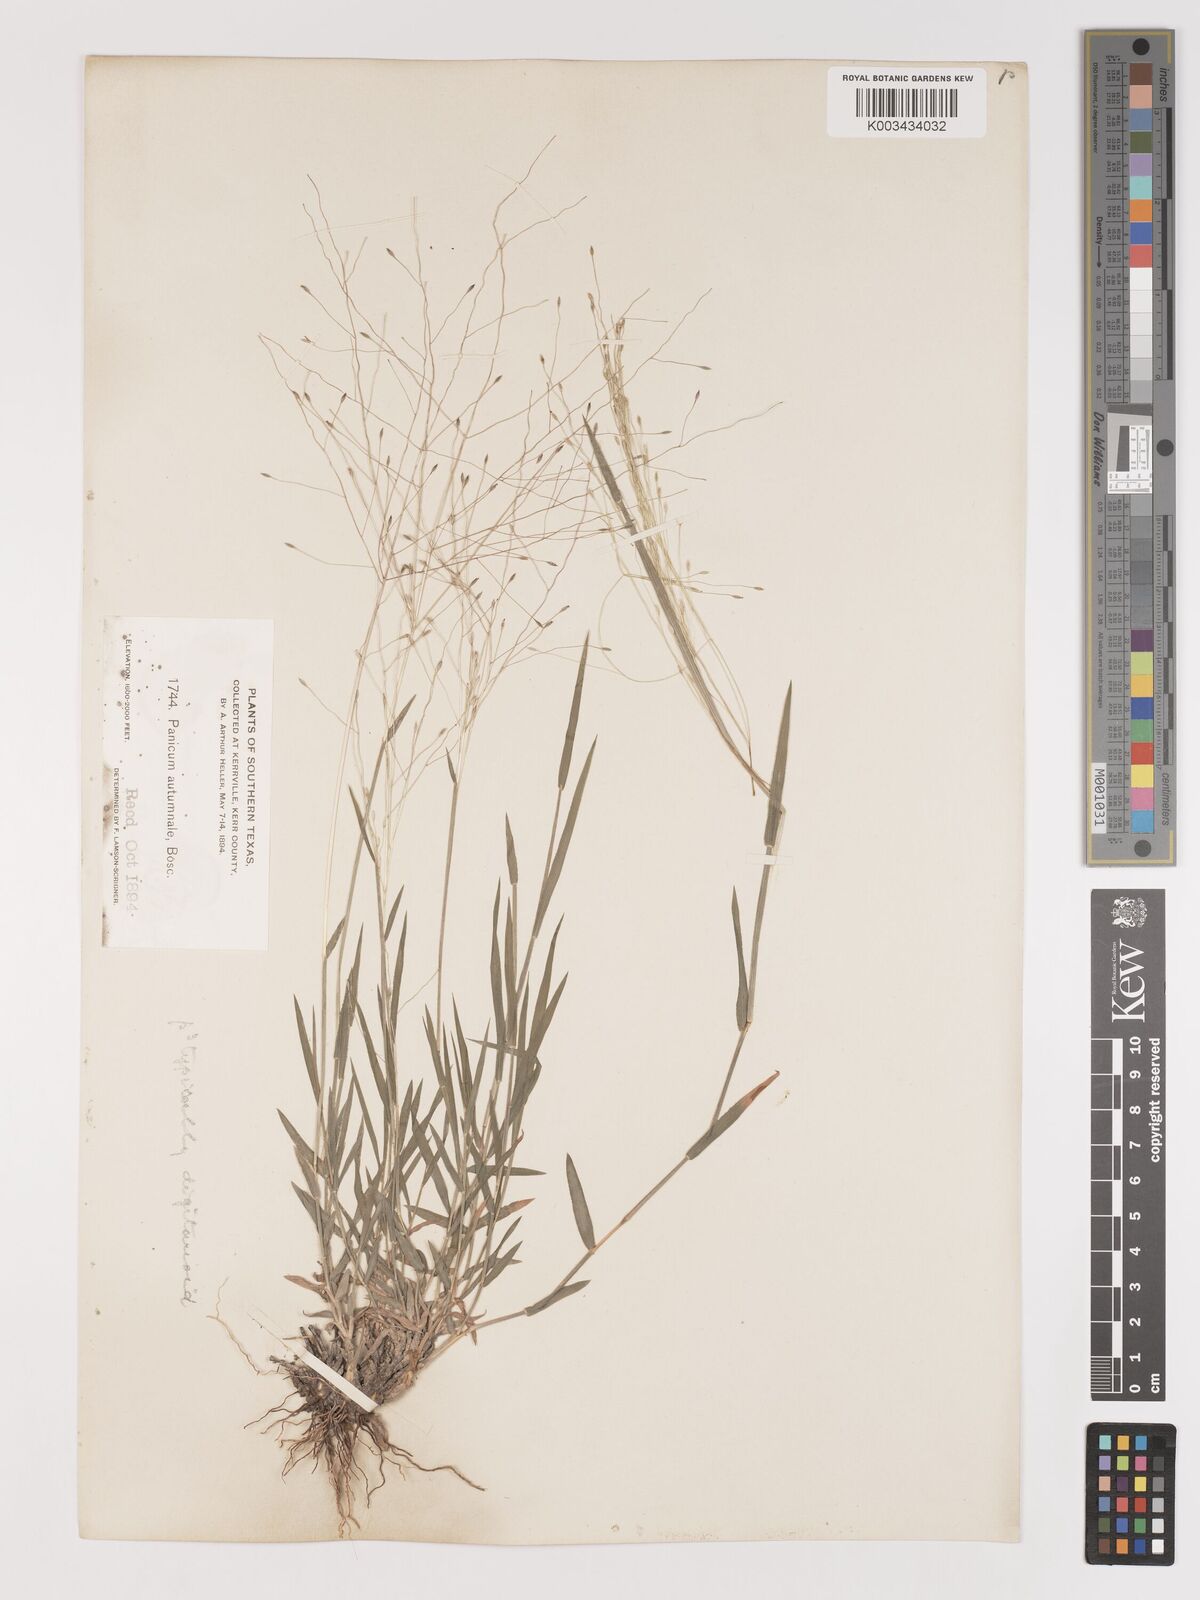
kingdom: Plantae
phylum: Tracheophyta
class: Liliopsida
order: Poales
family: Poaceae
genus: Digitaria
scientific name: Digitaria cognata
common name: Fall witchgrass
